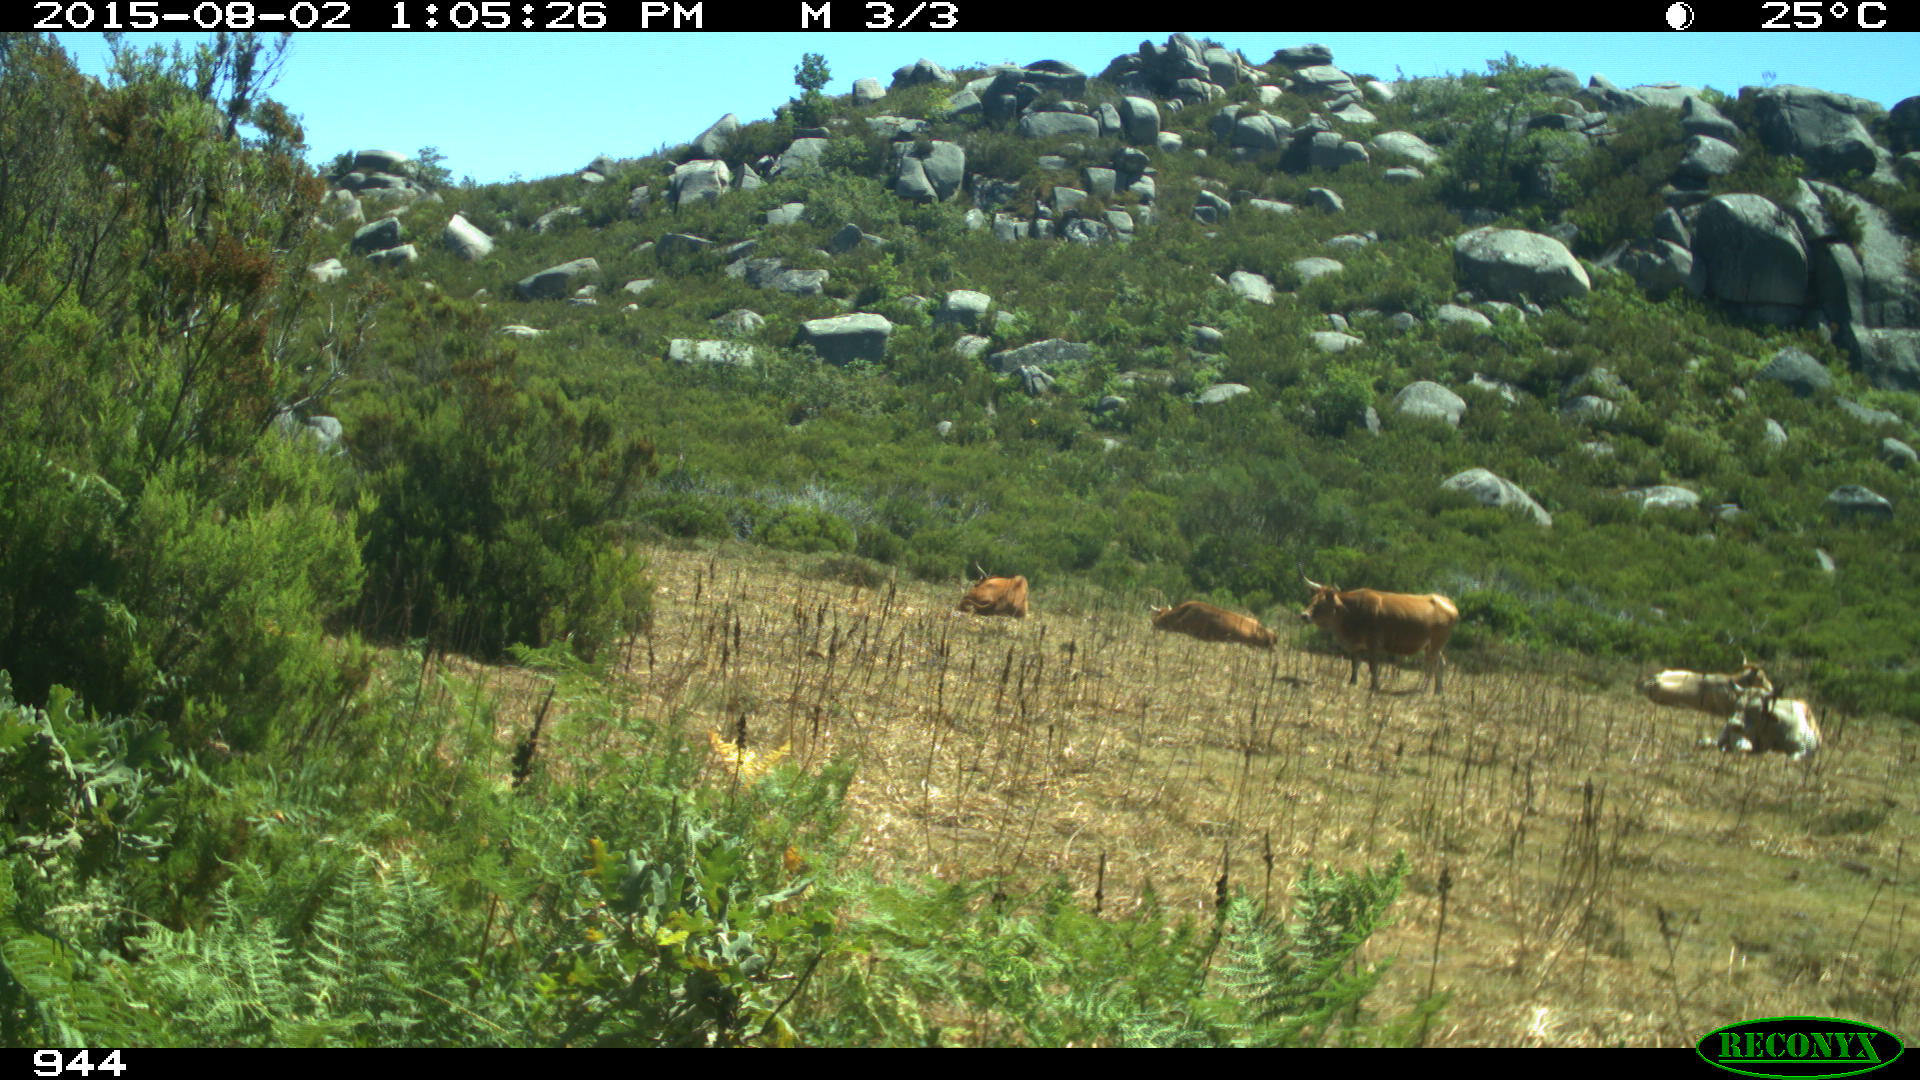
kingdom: Animalia
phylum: Chordata
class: Mammalia
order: Artiodactyla
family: Bovidae
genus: Bos
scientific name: Bos taurus
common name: Domesticated cattle
